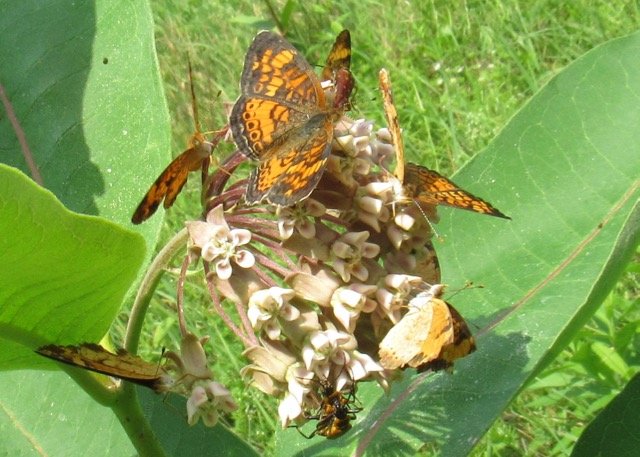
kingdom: Animalia
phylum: Arthropoda
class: Insecta
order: Lepidoptera
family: Nymphalidae
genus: Phyciodes
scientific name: Phyciodes tharos
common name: Pearl Crescent
